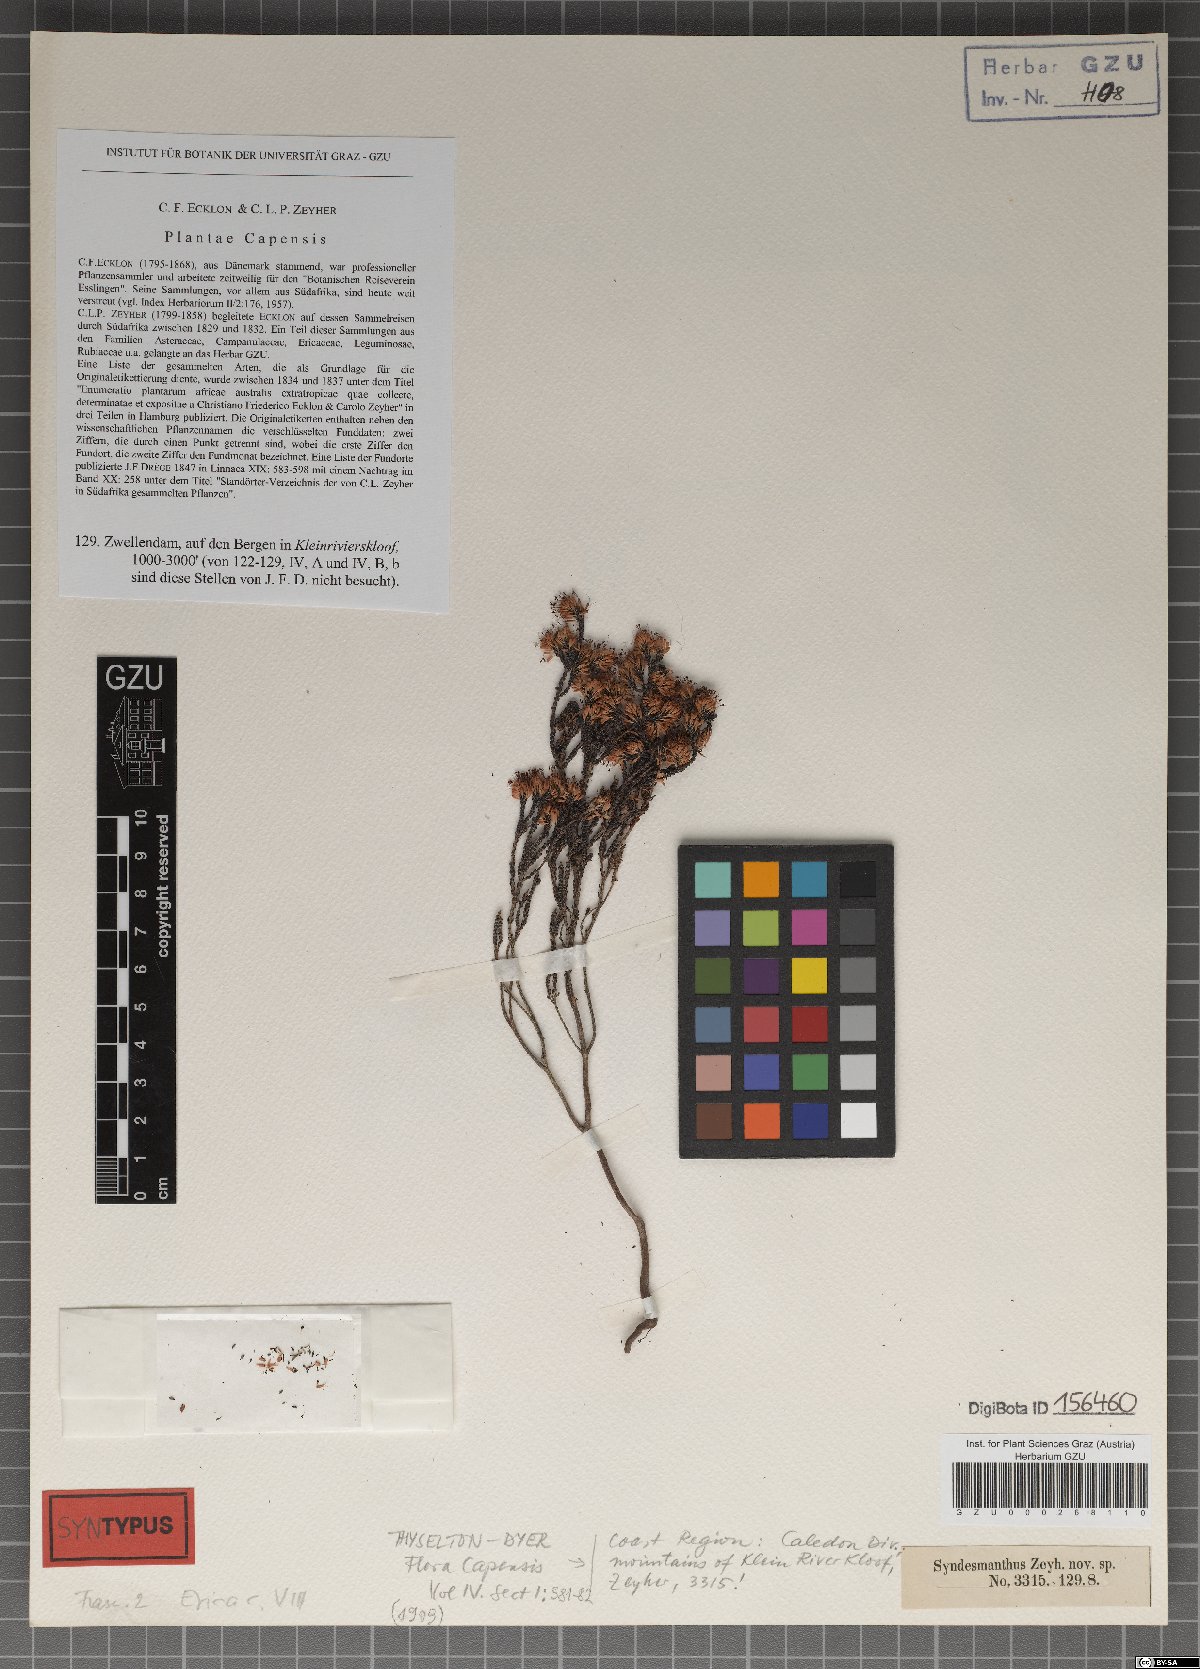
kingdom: Plantae
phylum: Tracheophyta
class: Magnoliopsida
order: Ericales
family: Ericaceae
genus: Erica
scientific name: Erica globiceps
